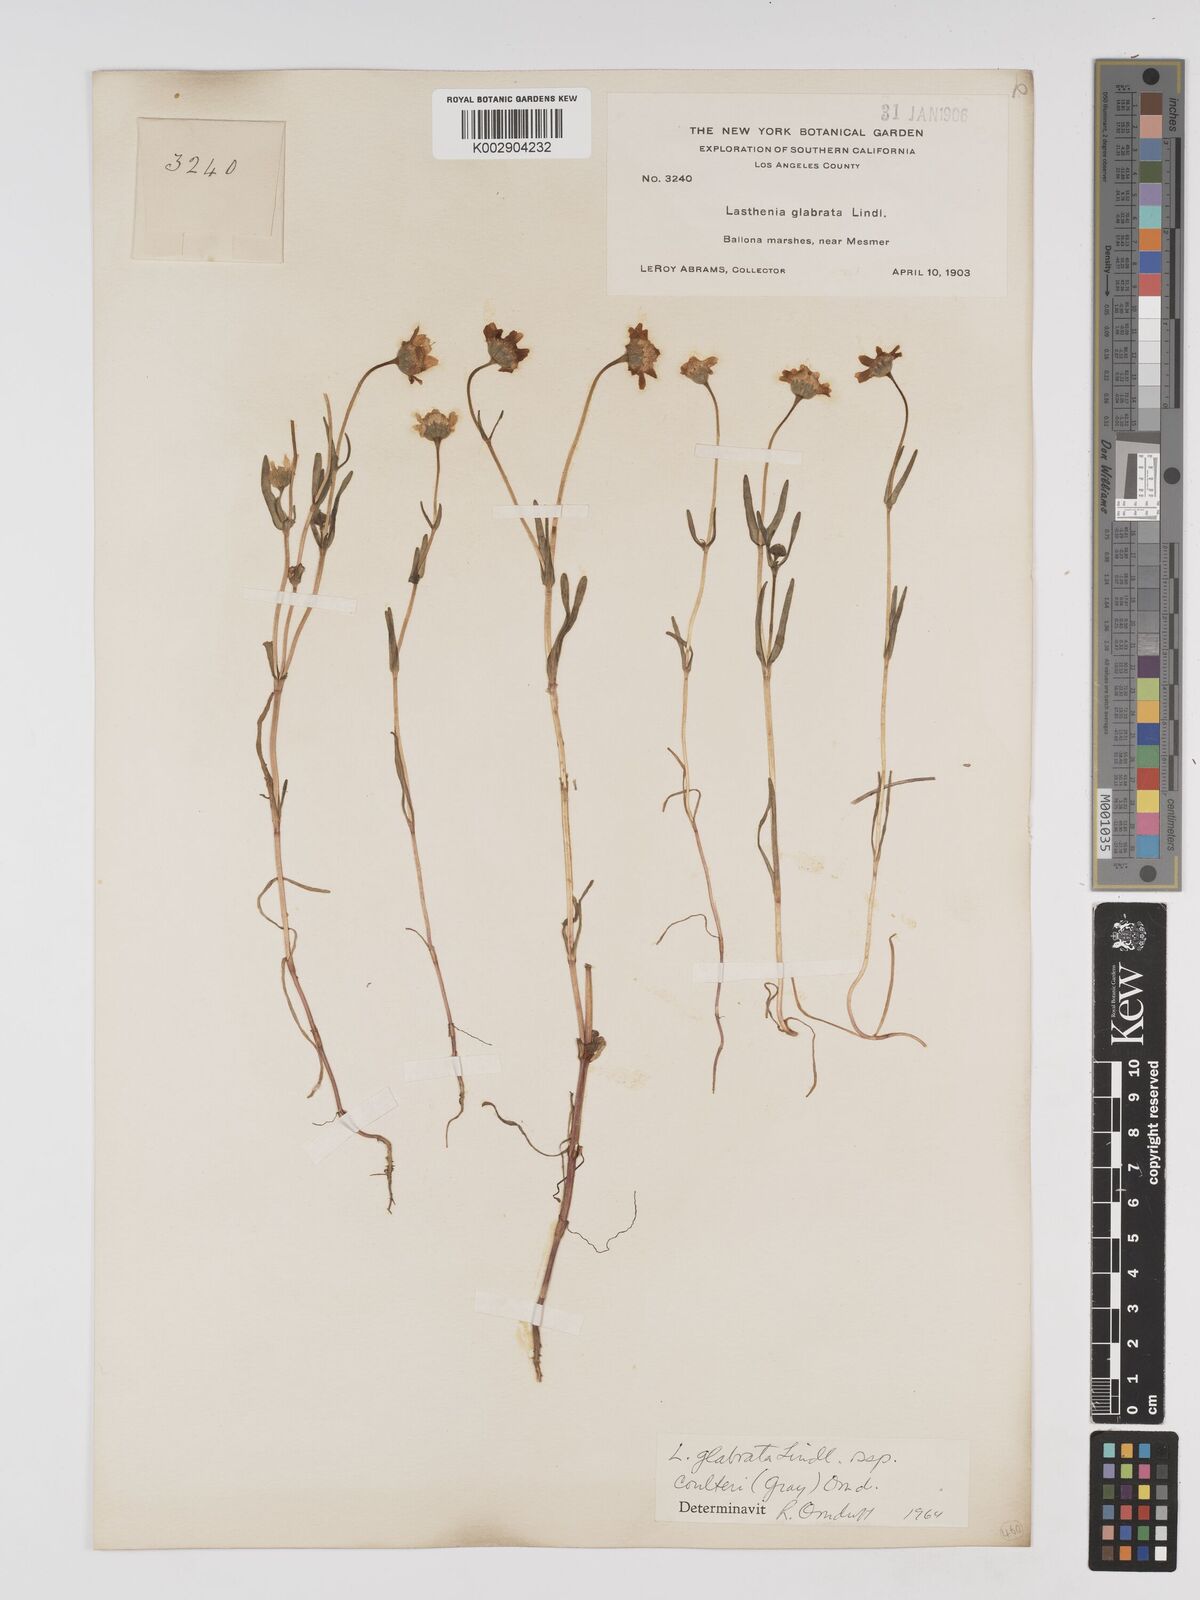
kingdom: Plantae
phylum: Tracheophyta
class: Magnoliopsida
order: Asterales
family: Asteraceae
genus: Lasthenia
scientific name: Lasthenia glabrata
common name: Yellow-ray lasthenia
